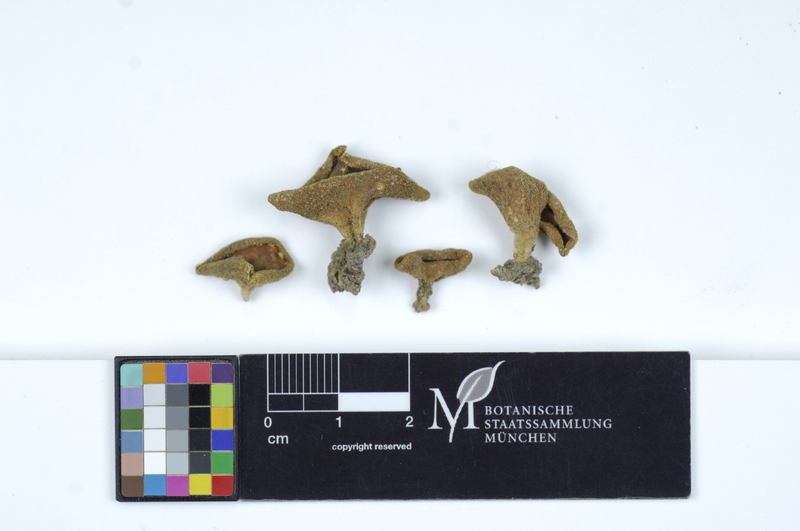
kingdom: Fungi
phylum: Ascomycota
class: Pezizomycetes
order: Pezizales
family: Pezizaceae
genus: Peziza
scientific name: Peziza vesiculosa
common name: Blistered cup
